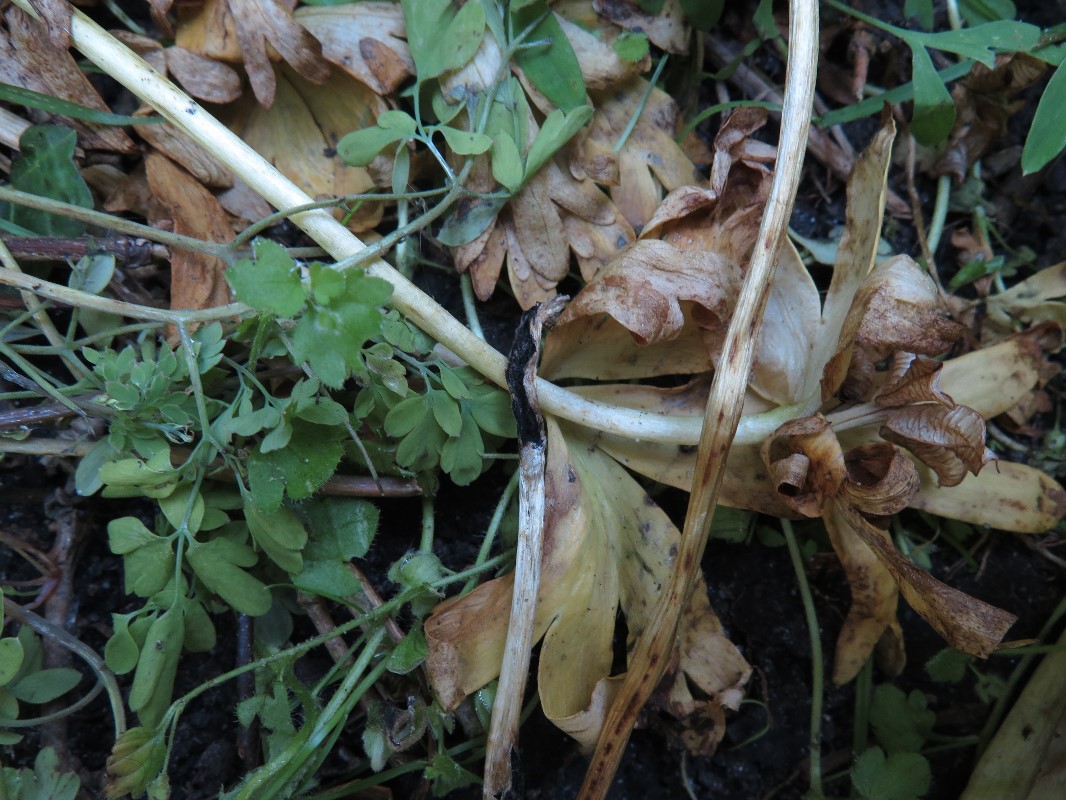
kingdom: Fungi
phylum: Basidiomycota
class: Ustilaginomycetes
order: Urocystidales
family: Urocystidaceae
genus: Urocystis
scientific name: Urocystis eranthidis
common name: erantis-brand
